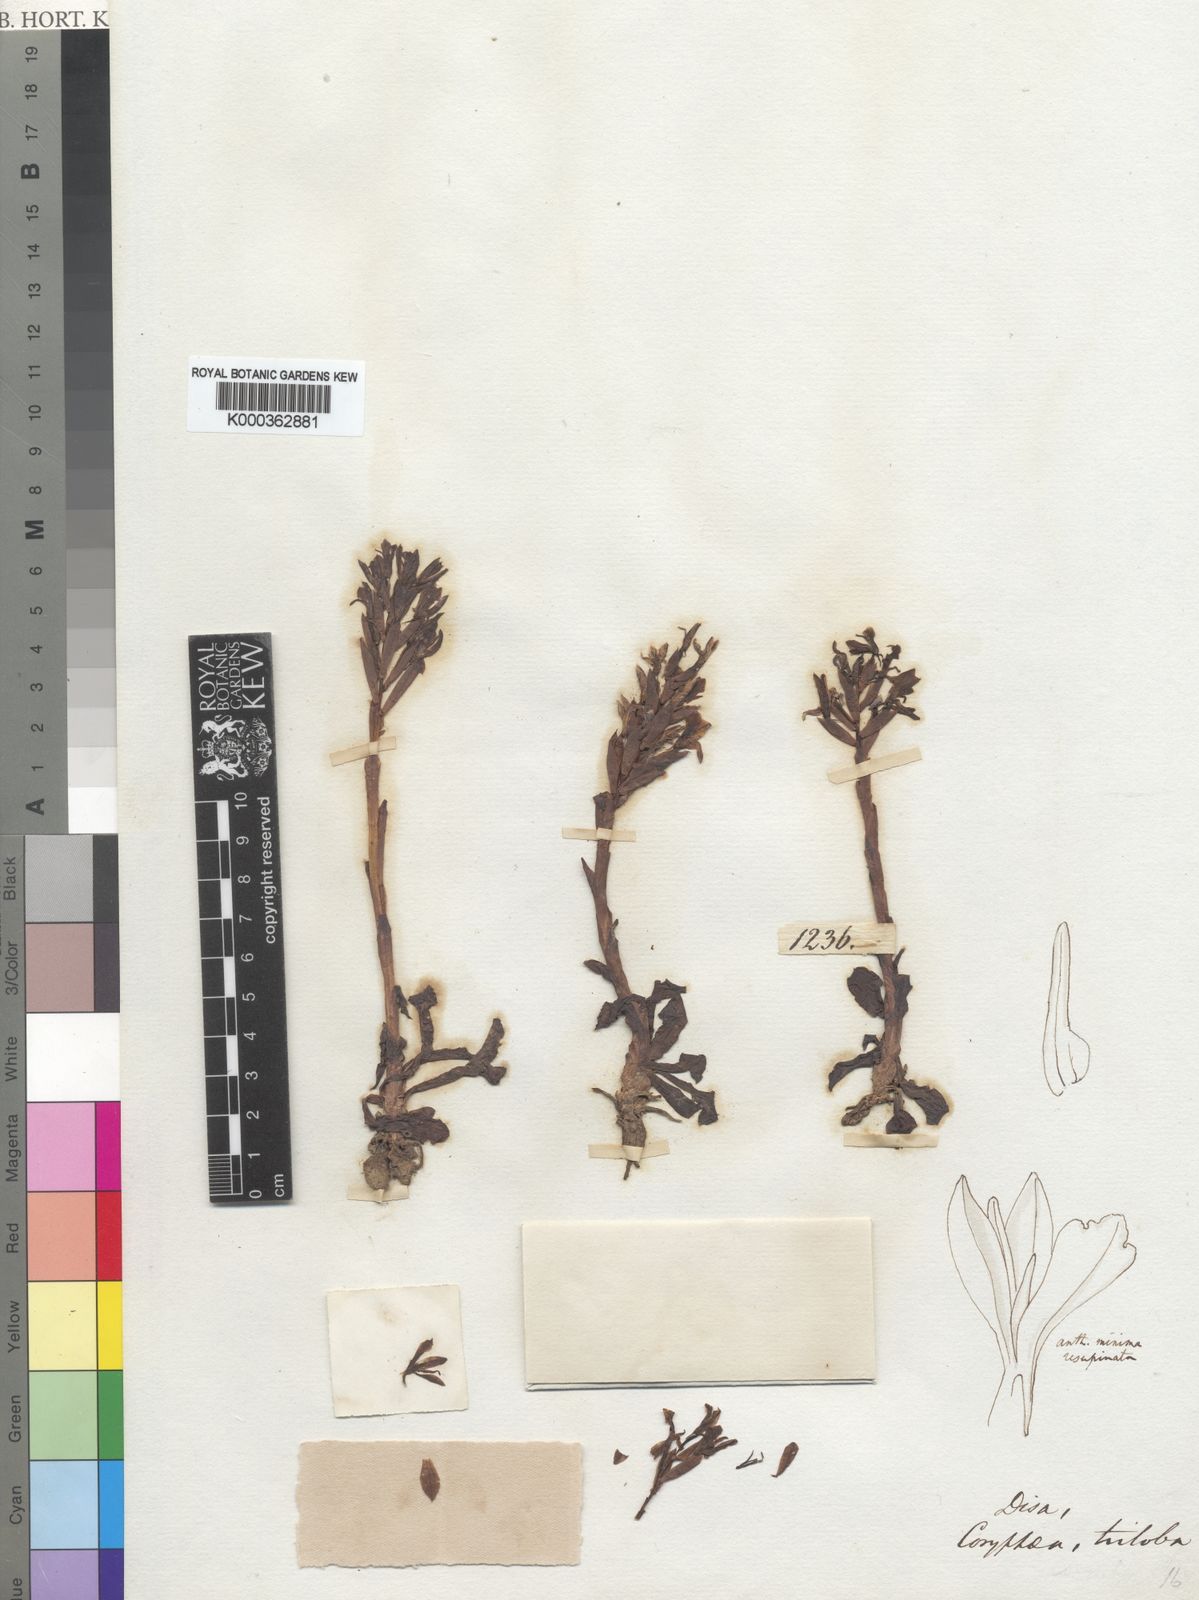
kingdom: Plantae
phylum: Tracheophyta
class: Liliopsida
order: Asparagales
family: Orchidaceae
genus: Disa
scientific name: Disa triloba
